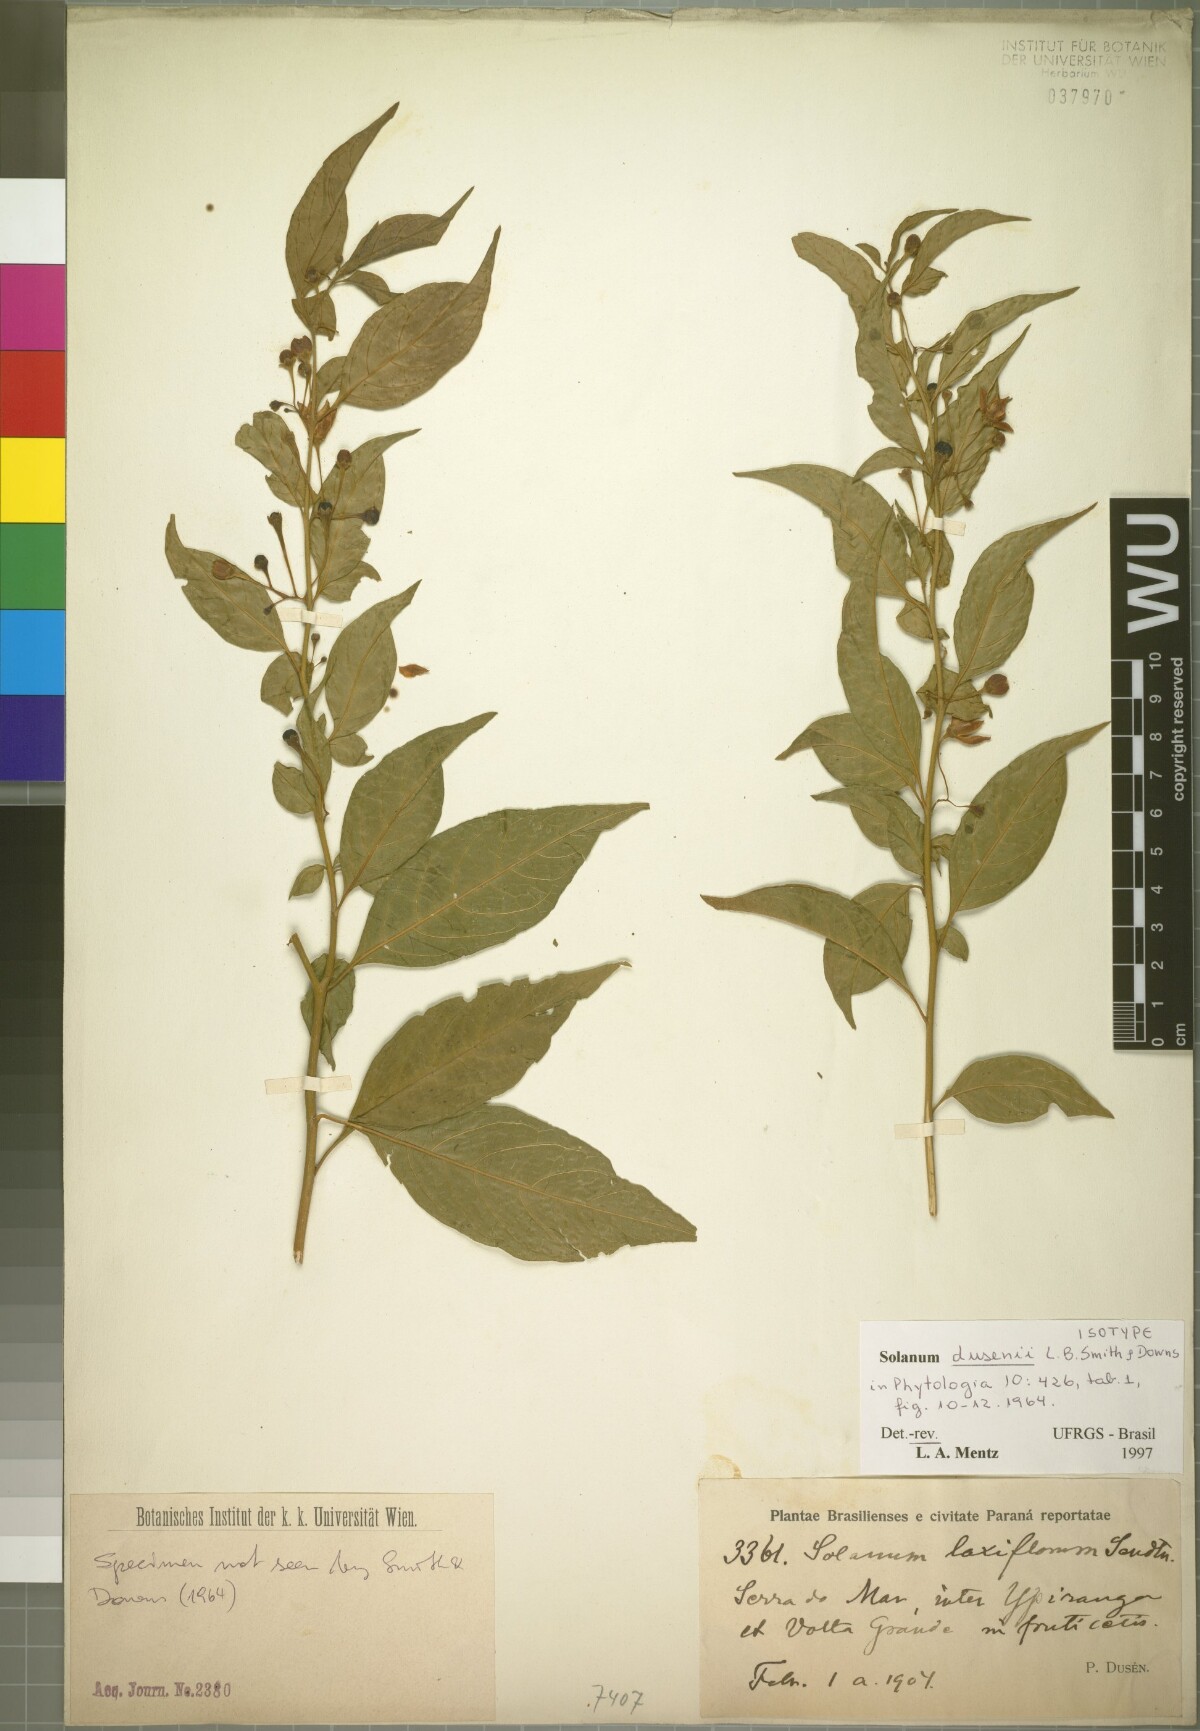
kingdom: Plantae
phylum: Tracheophyta
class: Magnoliopsida
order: Solanales
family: Solanaceae
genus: Solanum
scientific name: Solanum campaniforme
